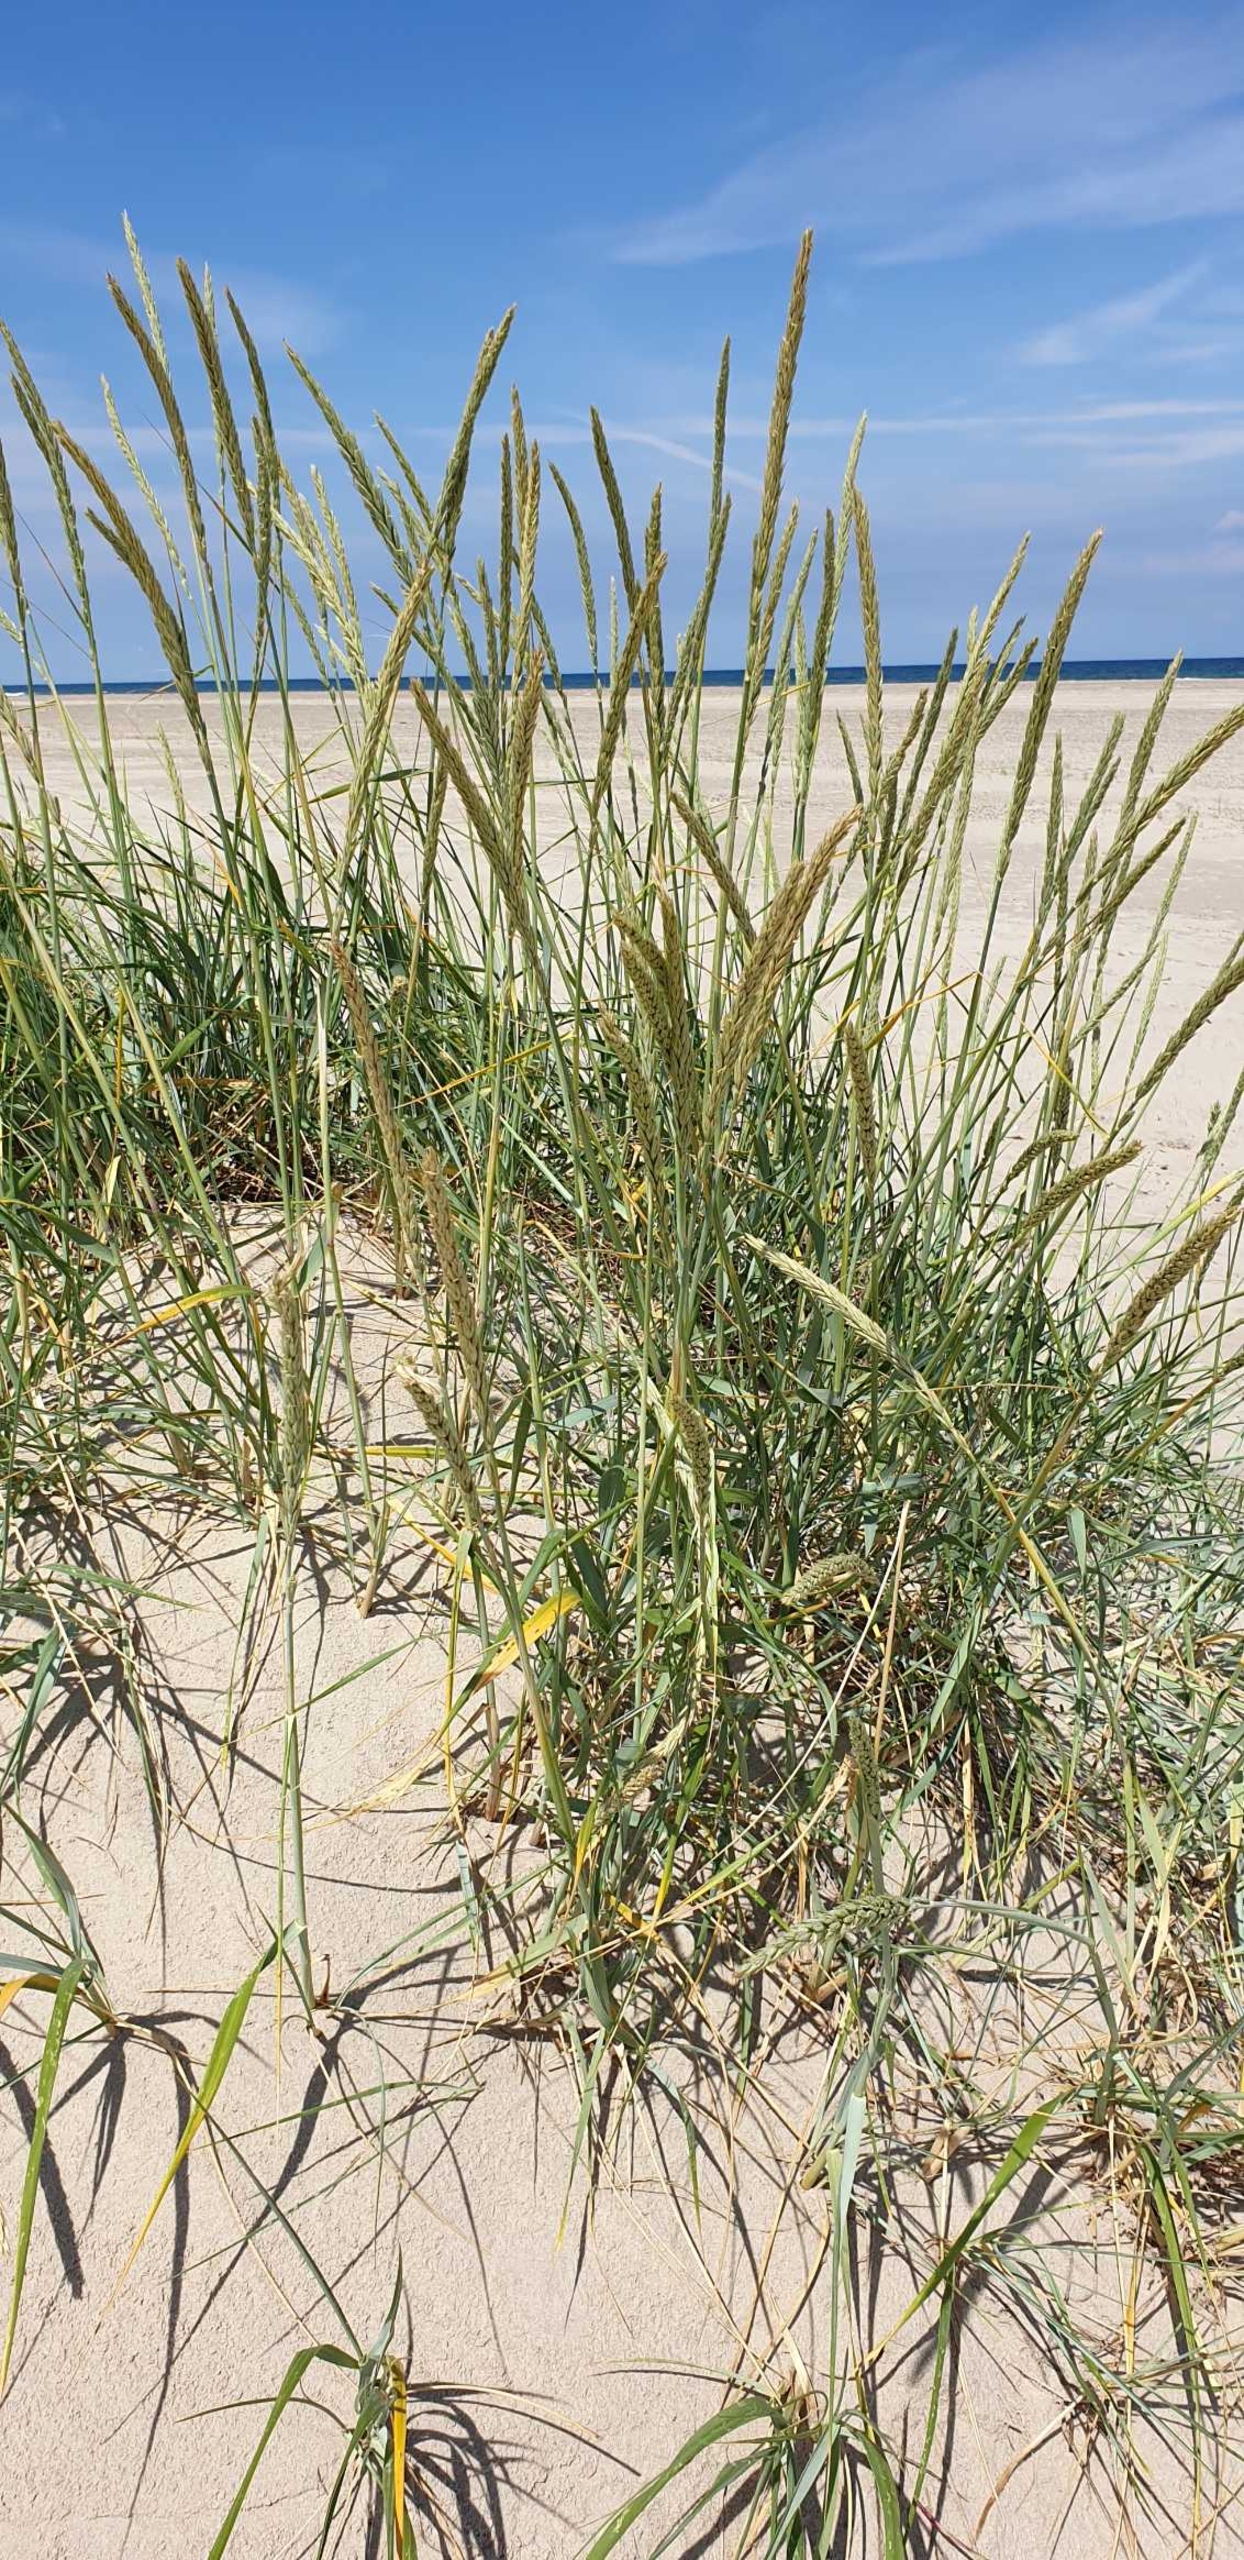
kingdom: Plantae
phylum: Tracheophyta
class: Liliopsida
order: Poales
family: Poaceae
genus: Leymus
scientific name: Leymus arenarius
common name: Marehalm
